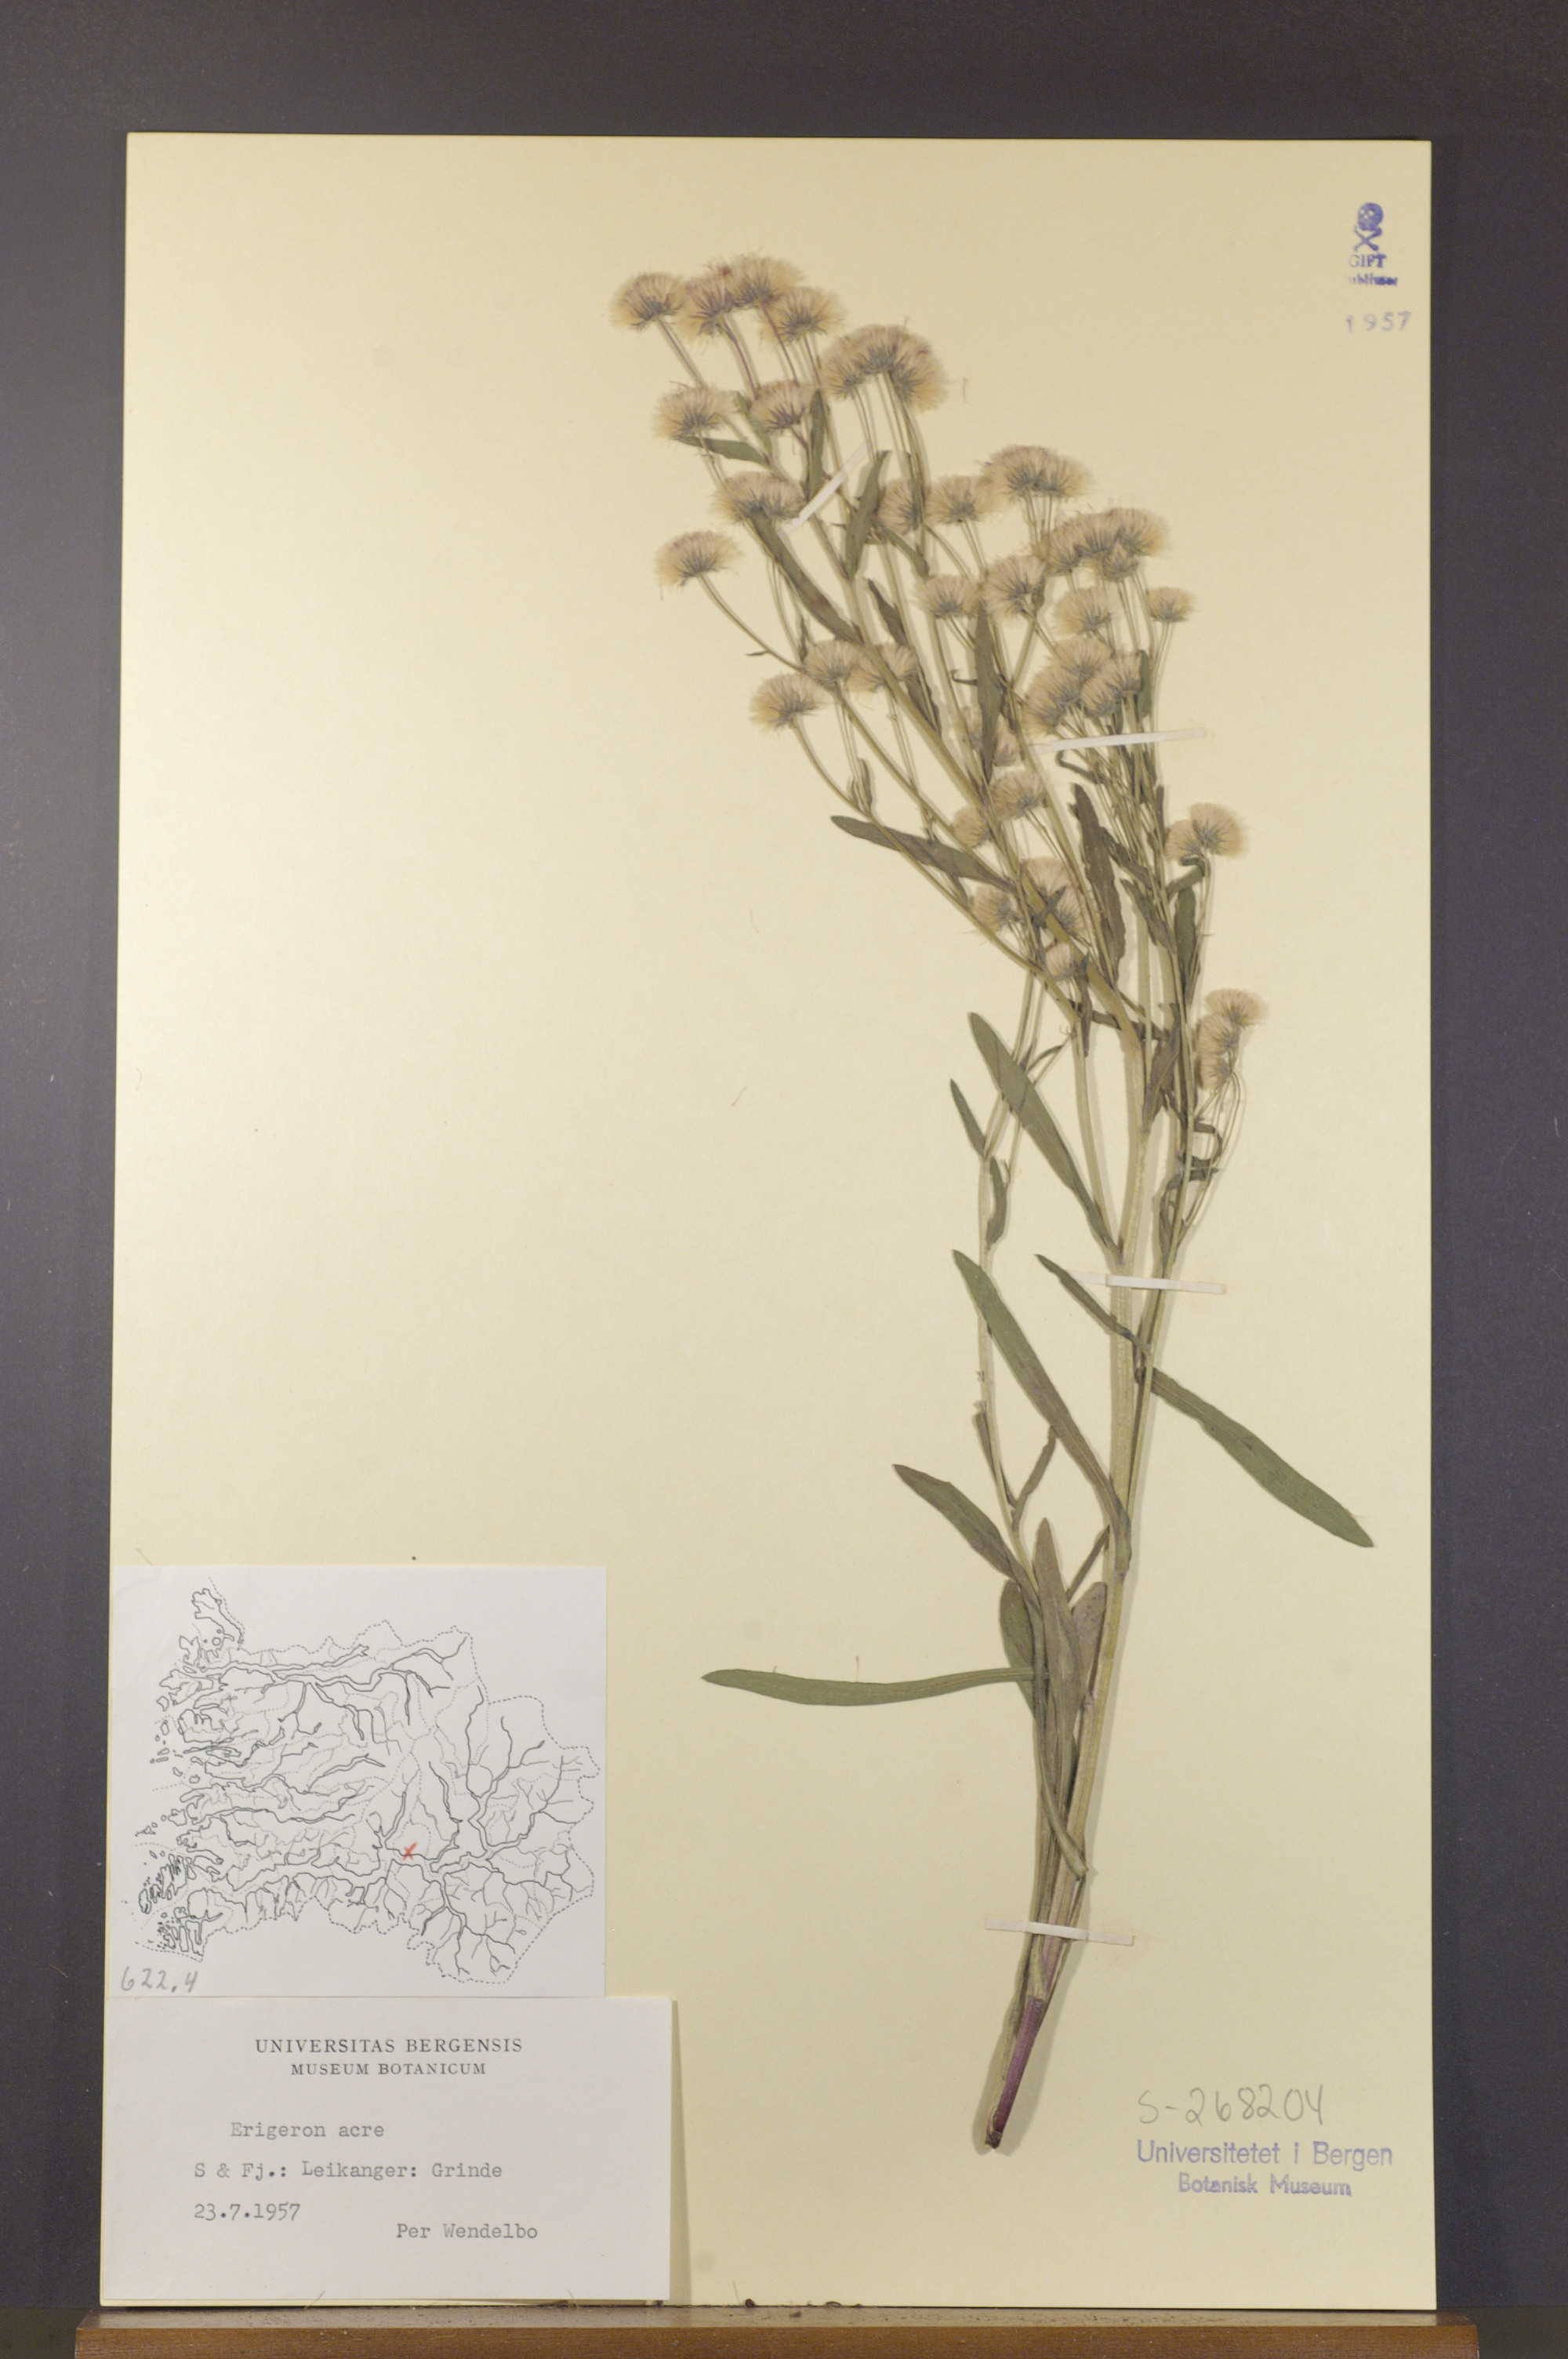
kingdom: Plantae
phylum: Tracheophyta
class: Magnoliopsida
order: Asterales
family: Asteraceae
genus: Erigeron
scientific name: Erigeron acris
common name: Blue fleabane
